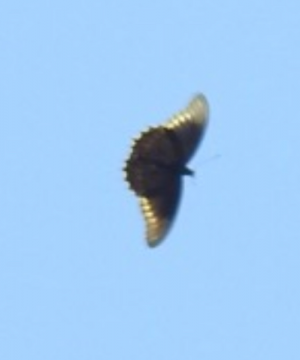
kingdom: Animalia
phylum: Arthropoda
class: Insecta
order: Lepidoptera
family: Papilionidae
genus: Battus
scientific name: Battus polydamas
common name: Polydamas Swallowtail
